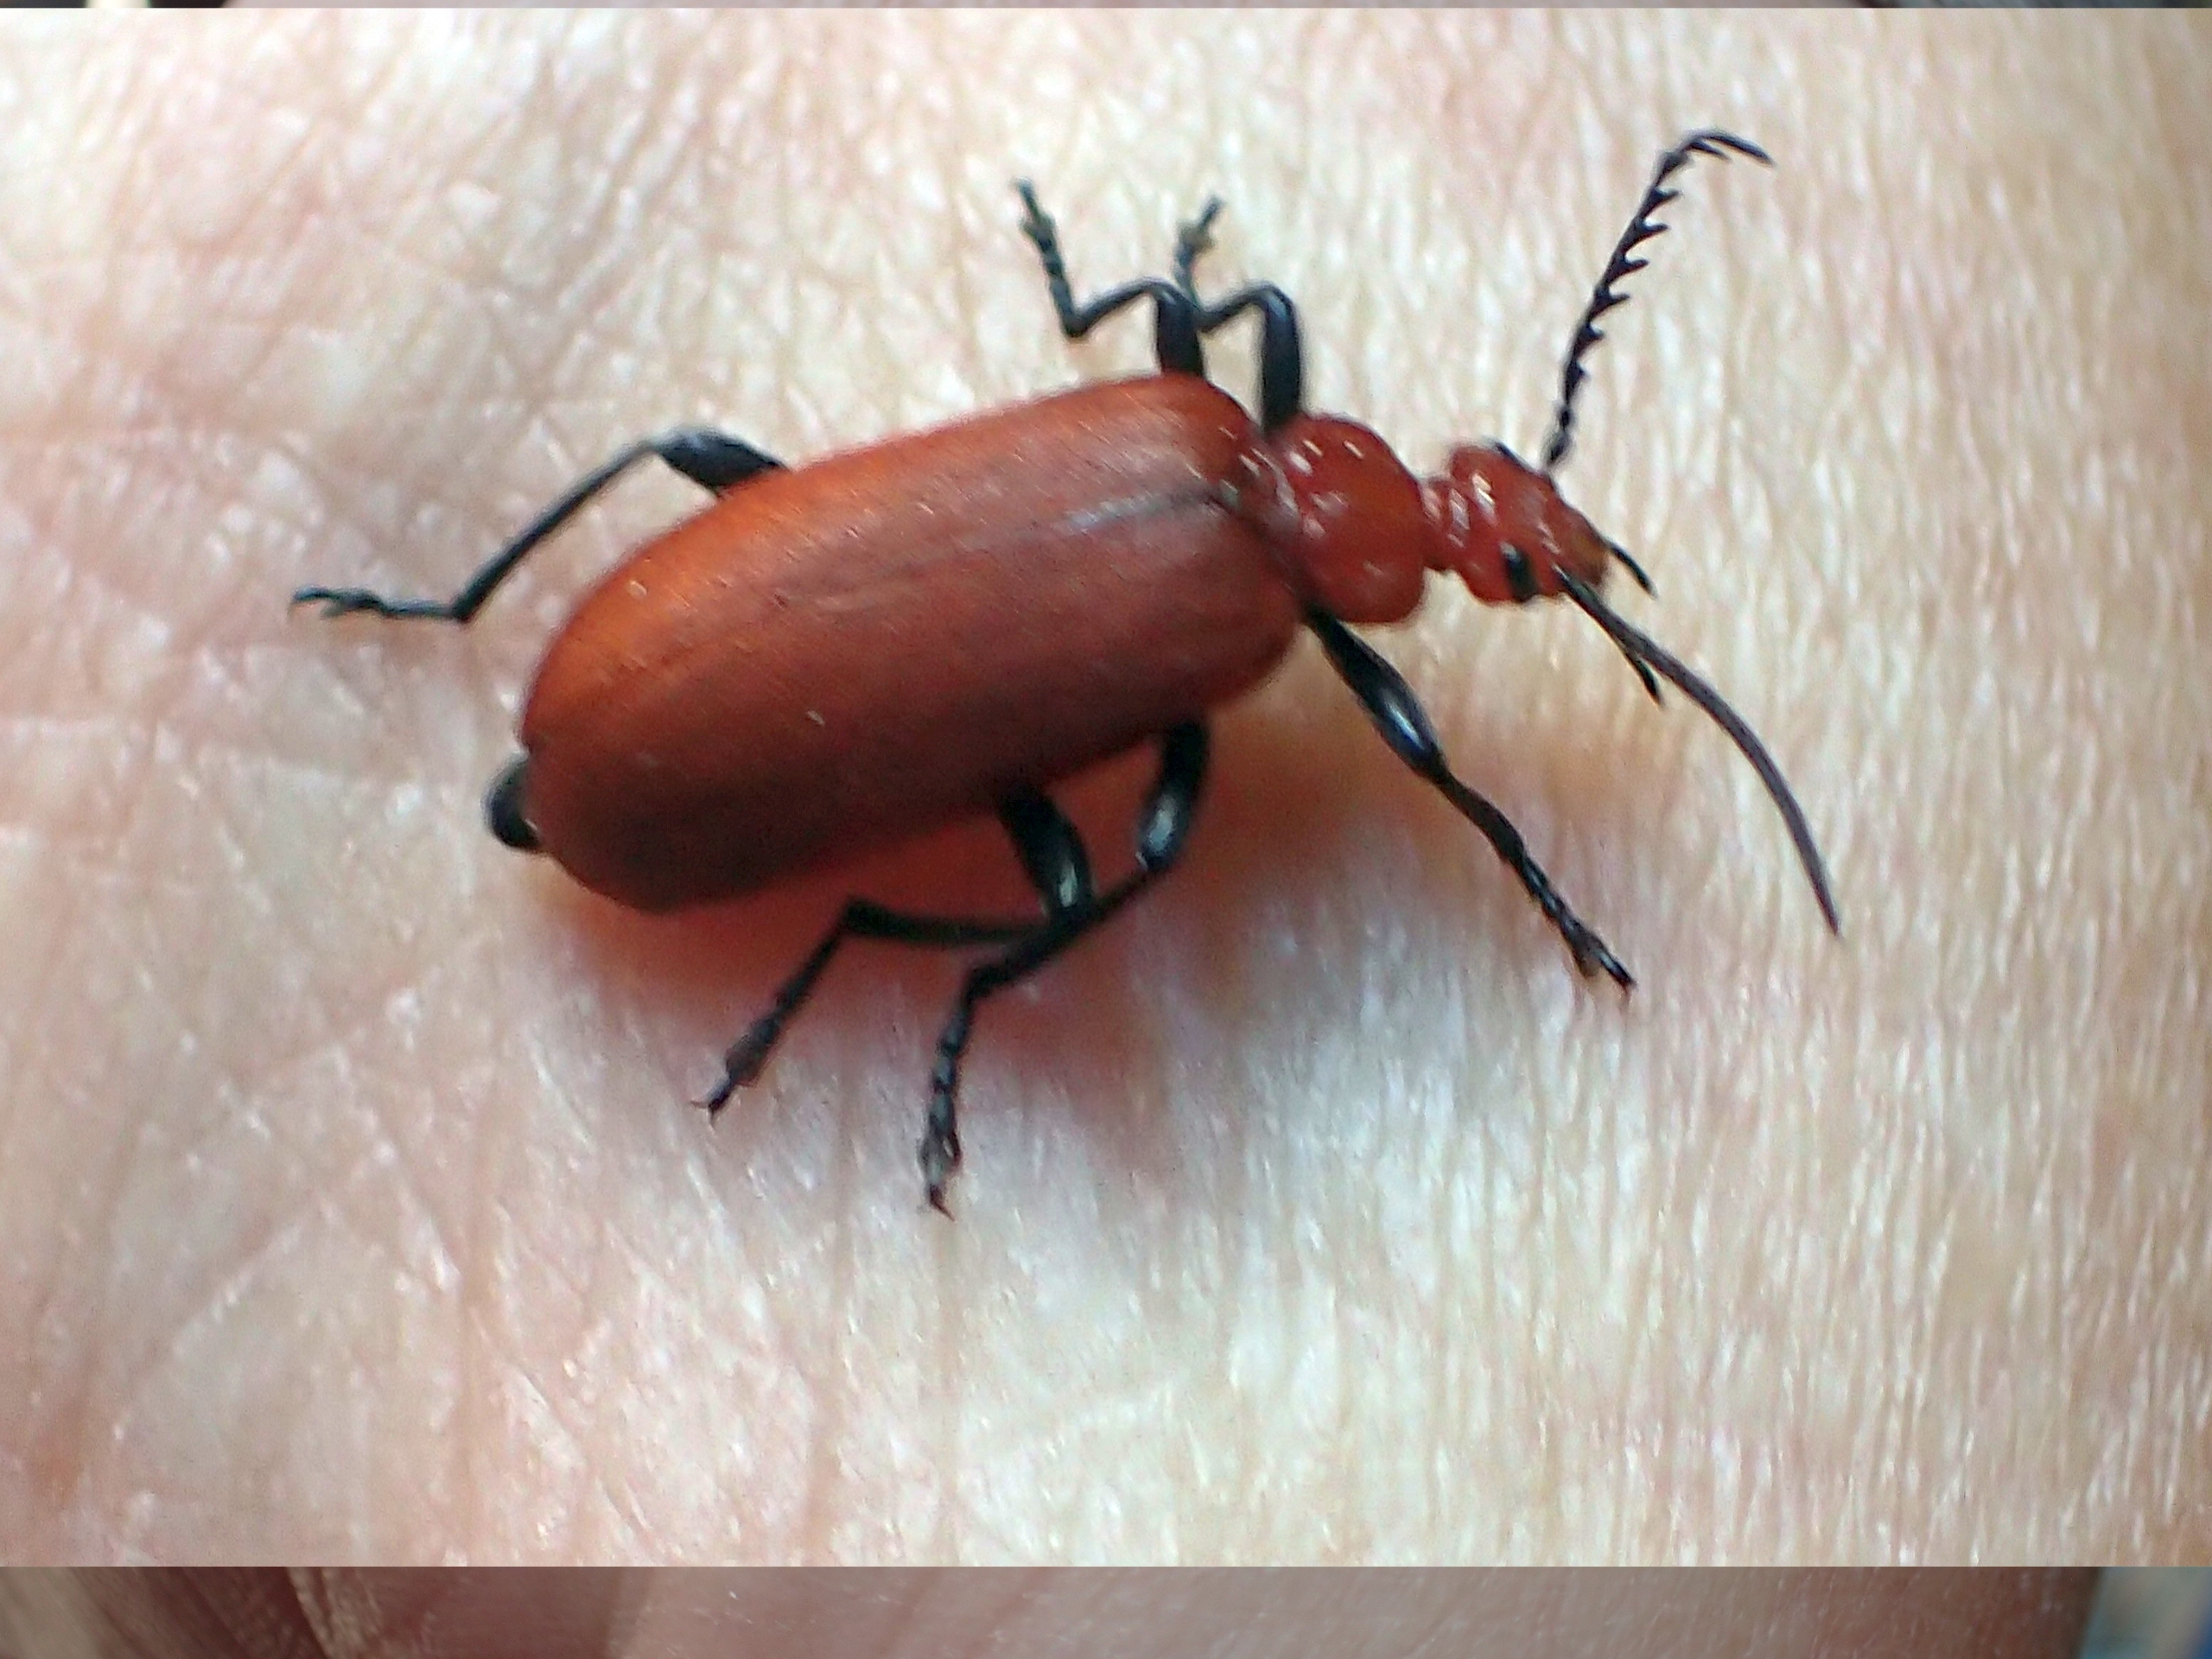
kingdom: Animalia
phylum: Arthropoda
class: Insecta
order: Coleoptera
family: Pyrochroidae
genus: Pyrochroa
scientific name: Pyrochroa serraticornis
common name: Rødhovedet kardinalbille
